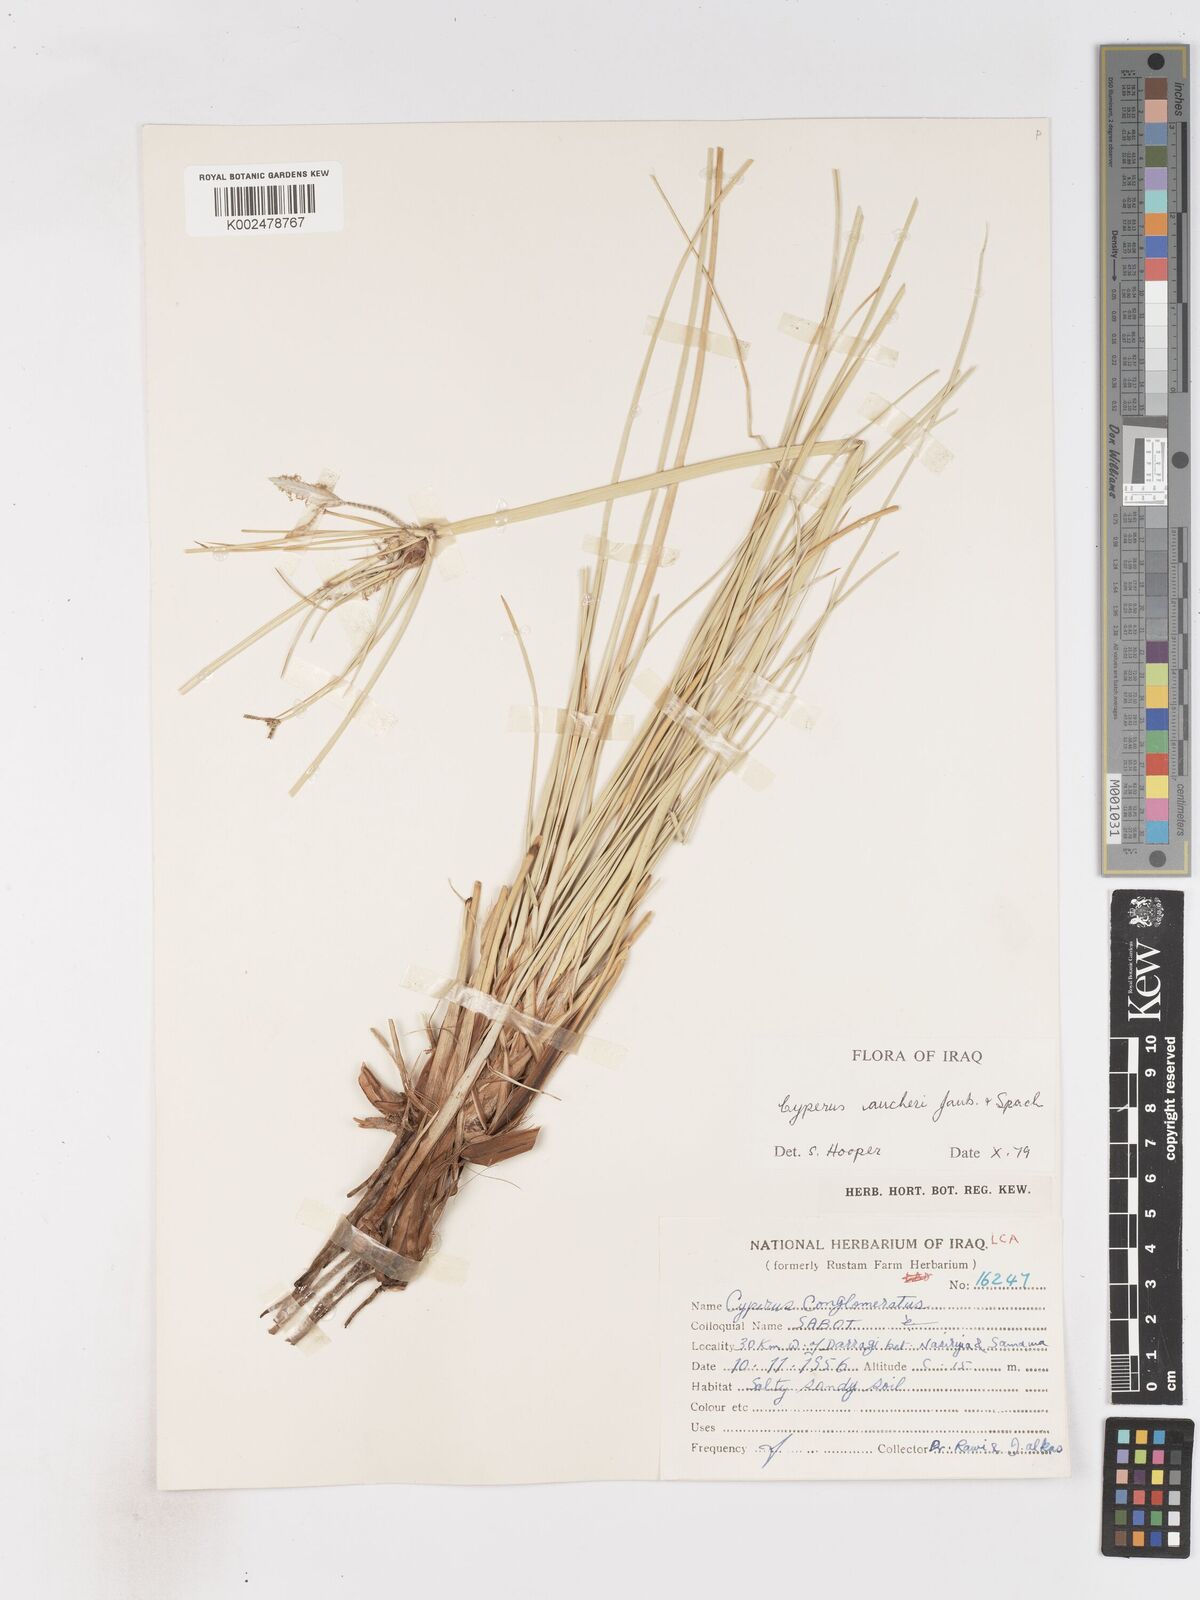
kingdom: Plantae
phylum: Tracheophyta
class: Liliopsida
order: Poales
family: Cyperaceae
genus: Cyperus
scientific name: Cyperus aucheri
